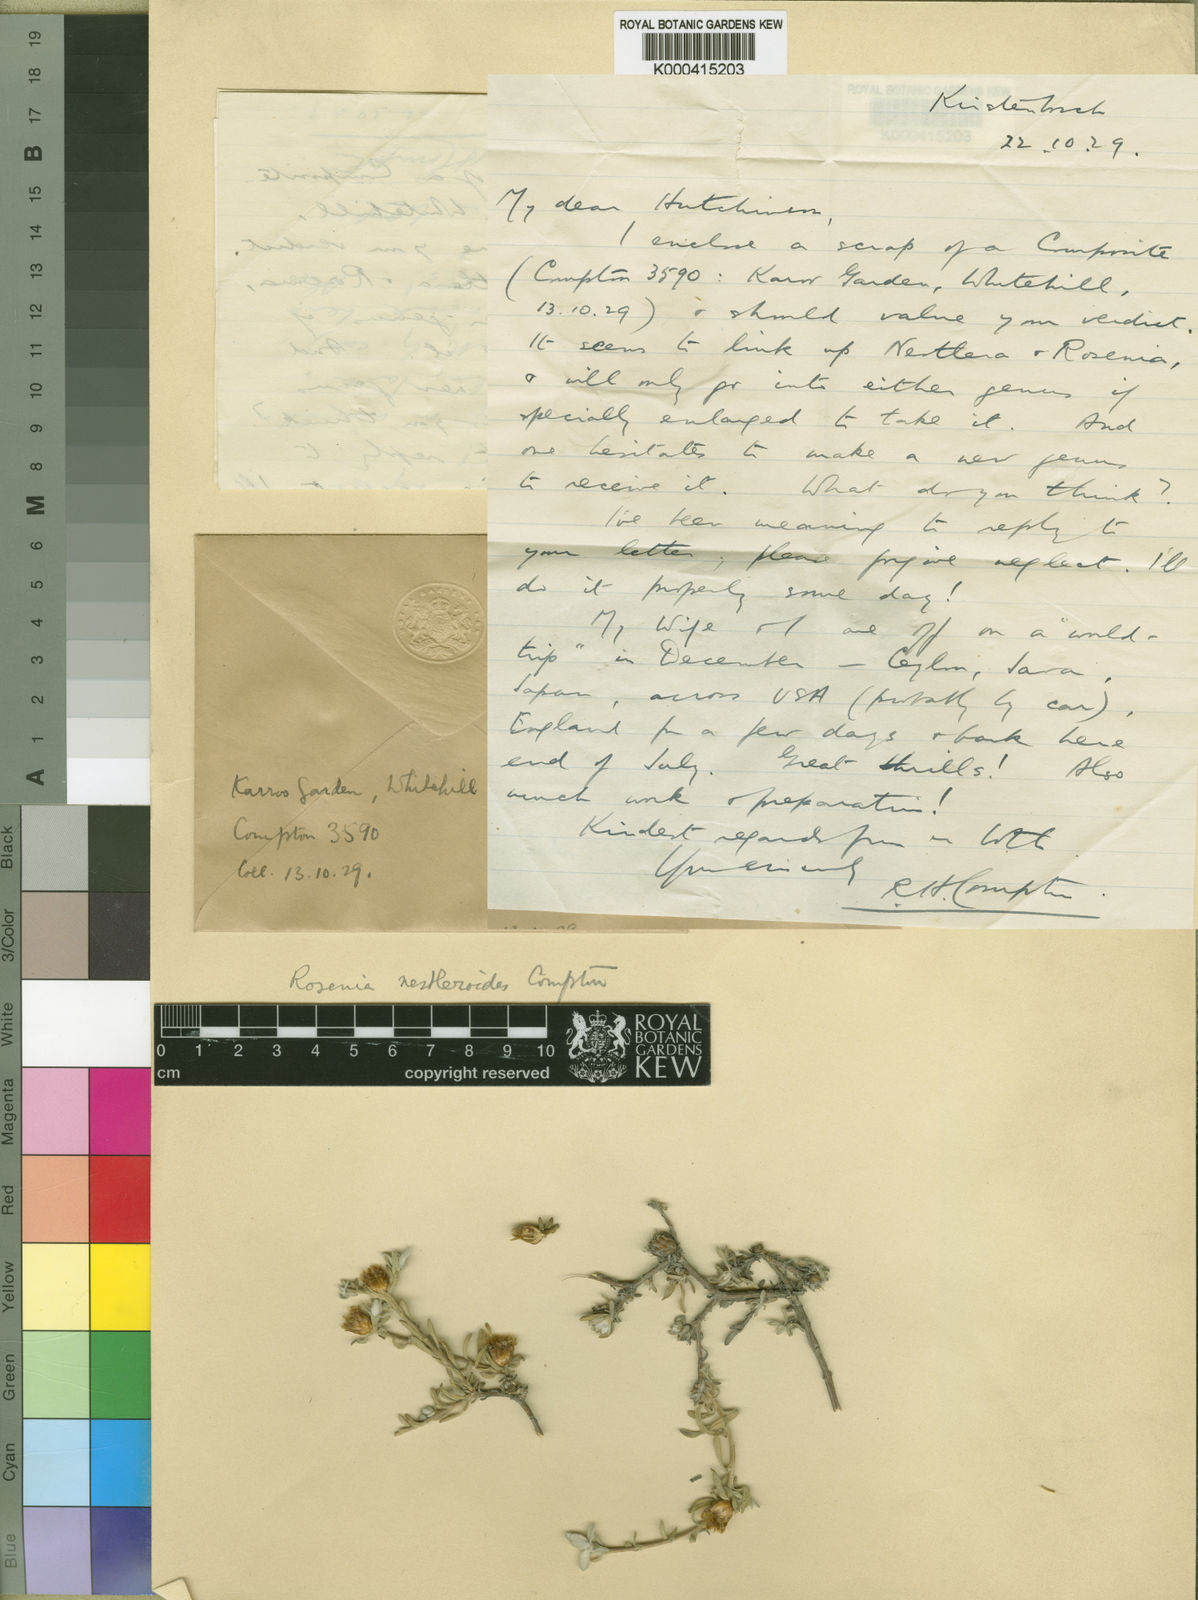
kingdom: Plantae
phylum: Tracheophyta
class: Magnoliopsida
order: Asterales
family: Asteraceae
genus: Oedera
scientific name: Oedera humilis
